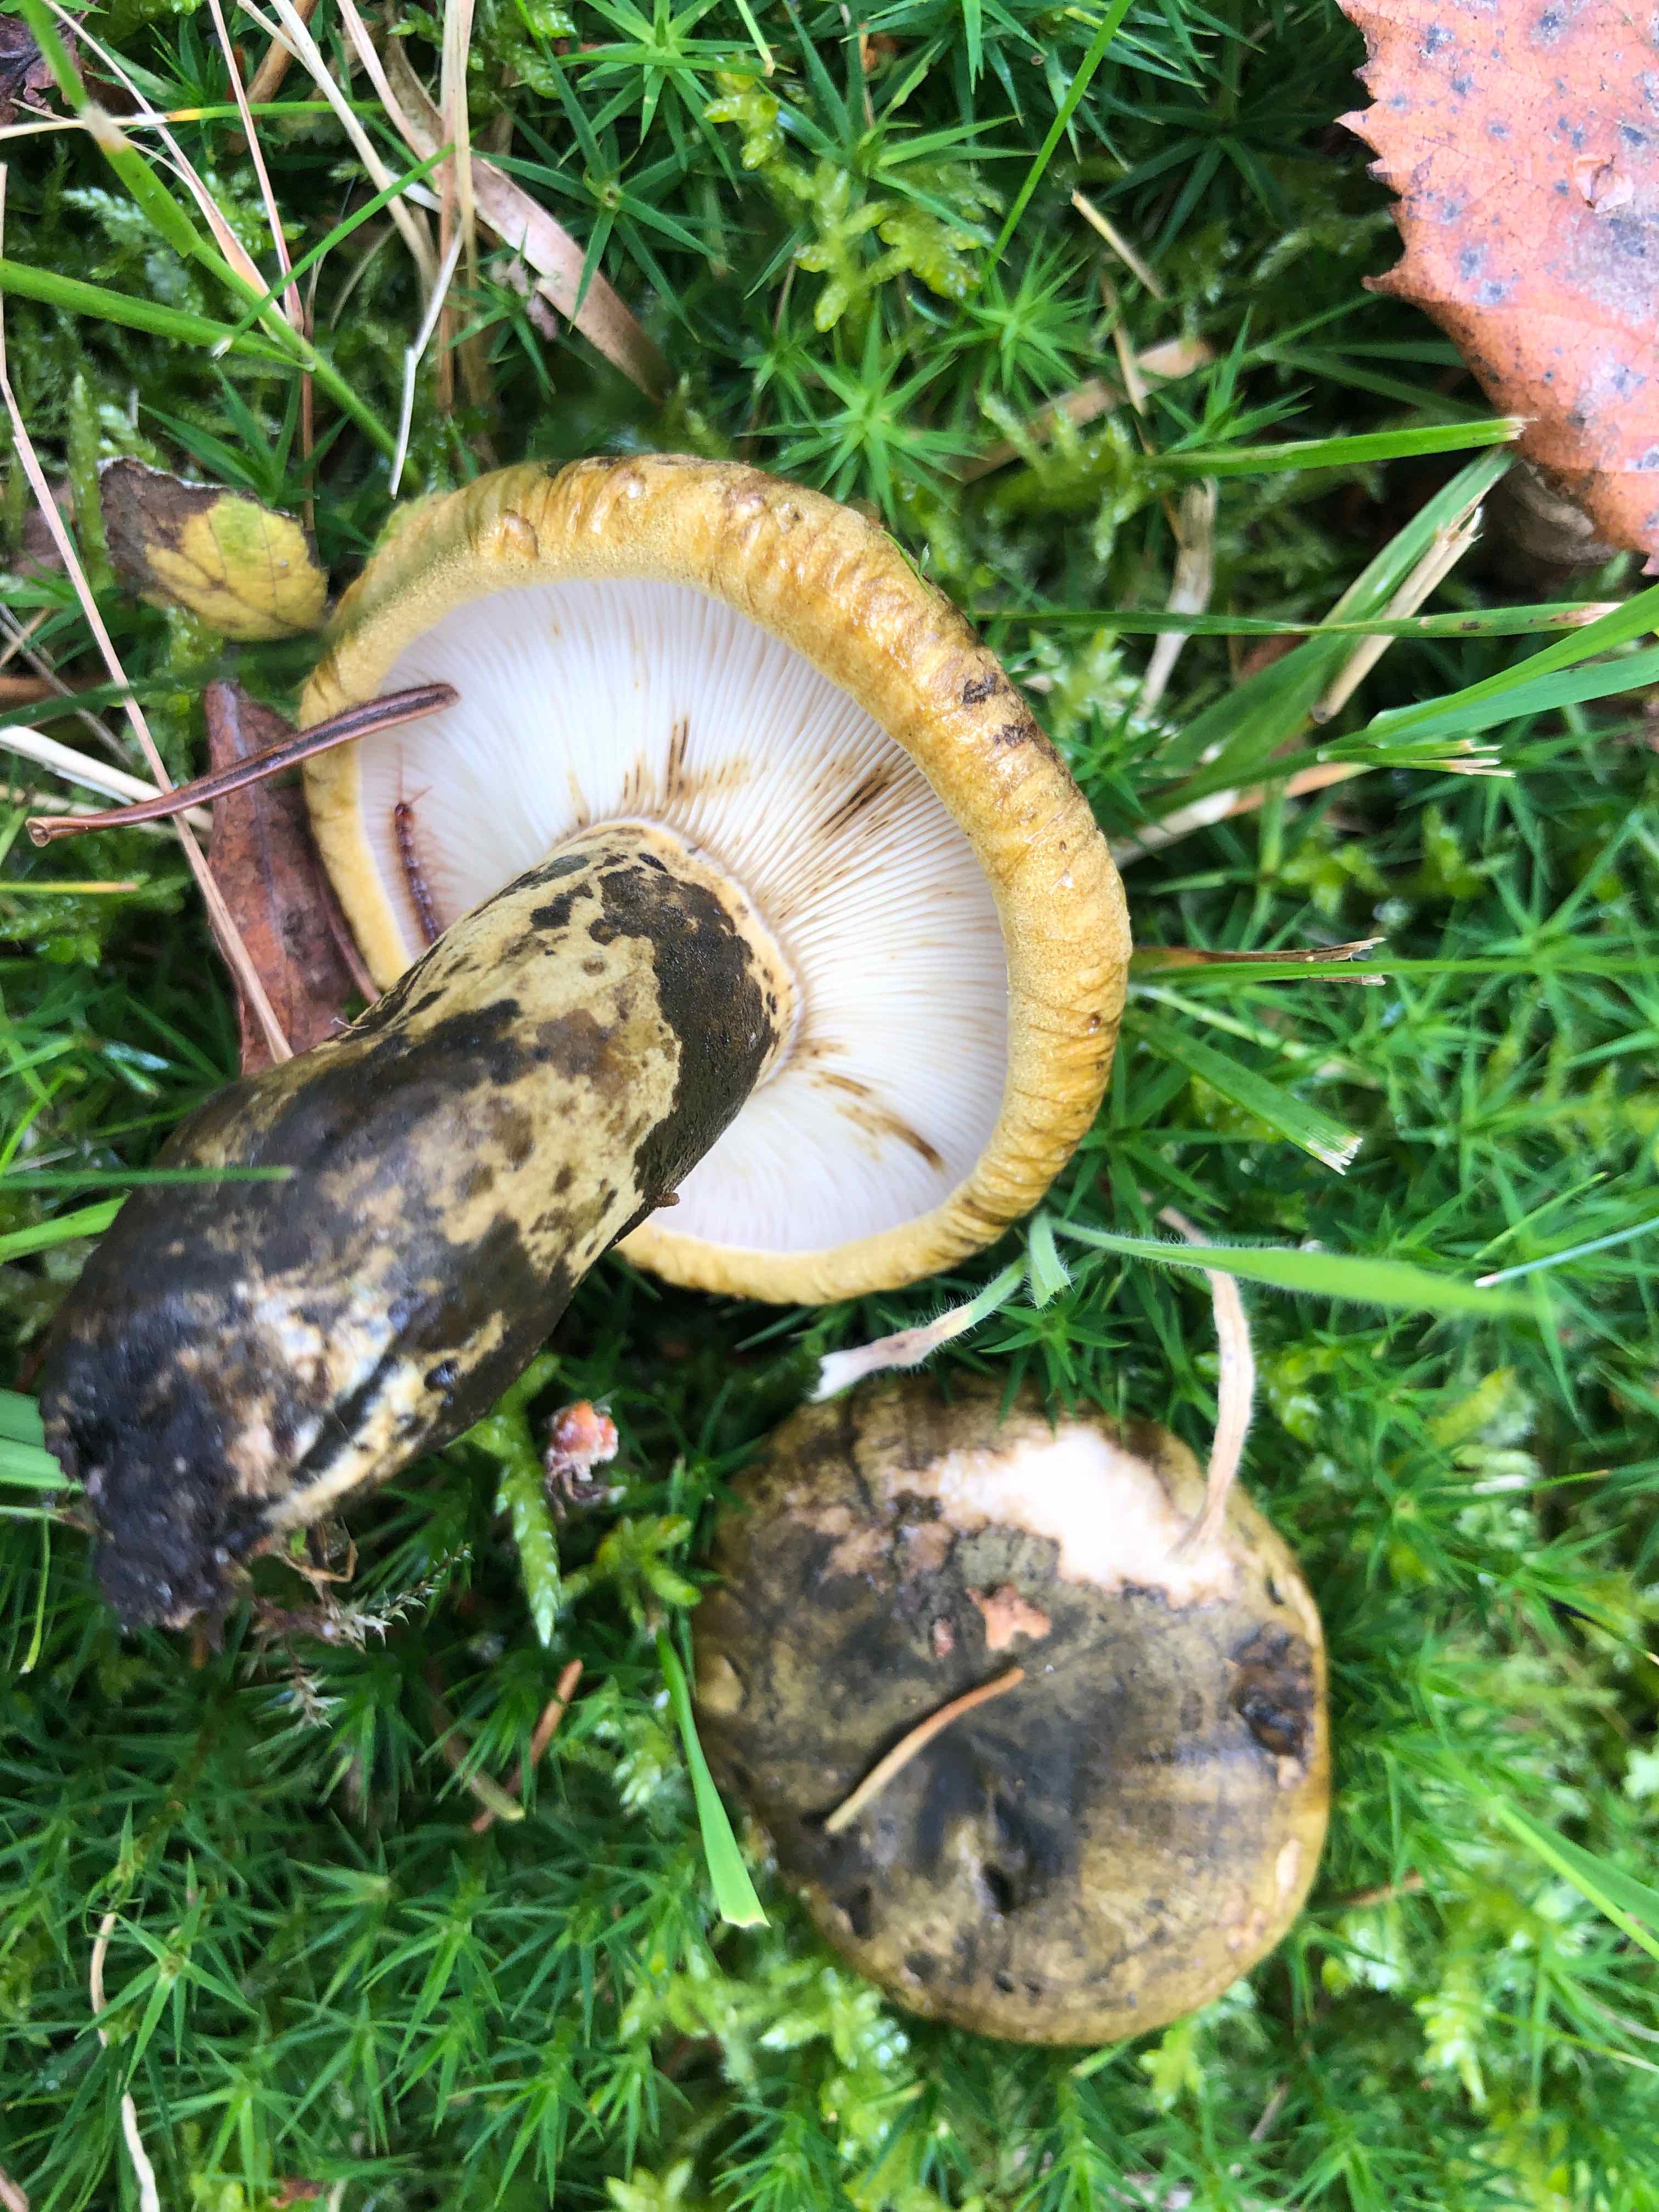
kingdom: Fungi
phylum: Basidiomycota
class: Agaricomycetes
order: Russulales
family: Russulaceae
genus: Lactarius
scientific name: Lactarius necator
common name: manddraber-mælkehat
